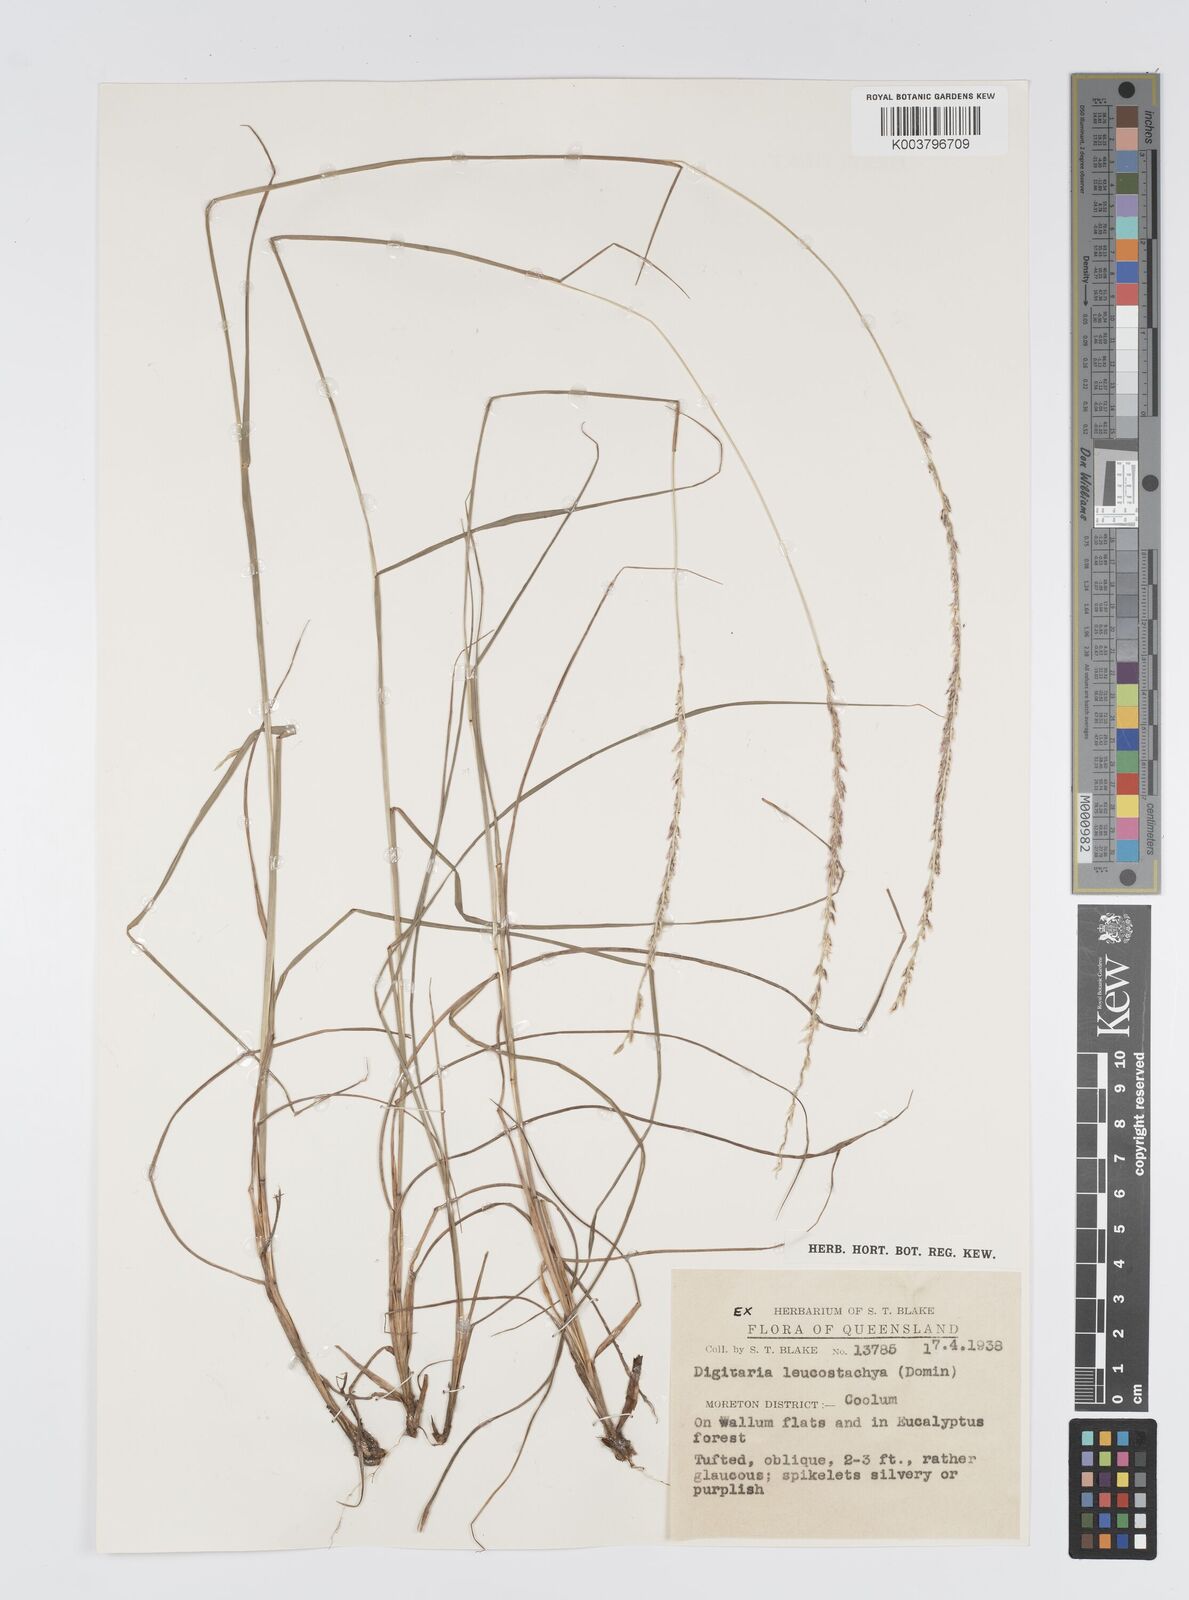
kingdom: Plantae
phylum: Tracheophyta
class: Liliopsida
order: Poales
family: Poaceae
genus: Digitaria
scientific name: Digitaria leucostachya
